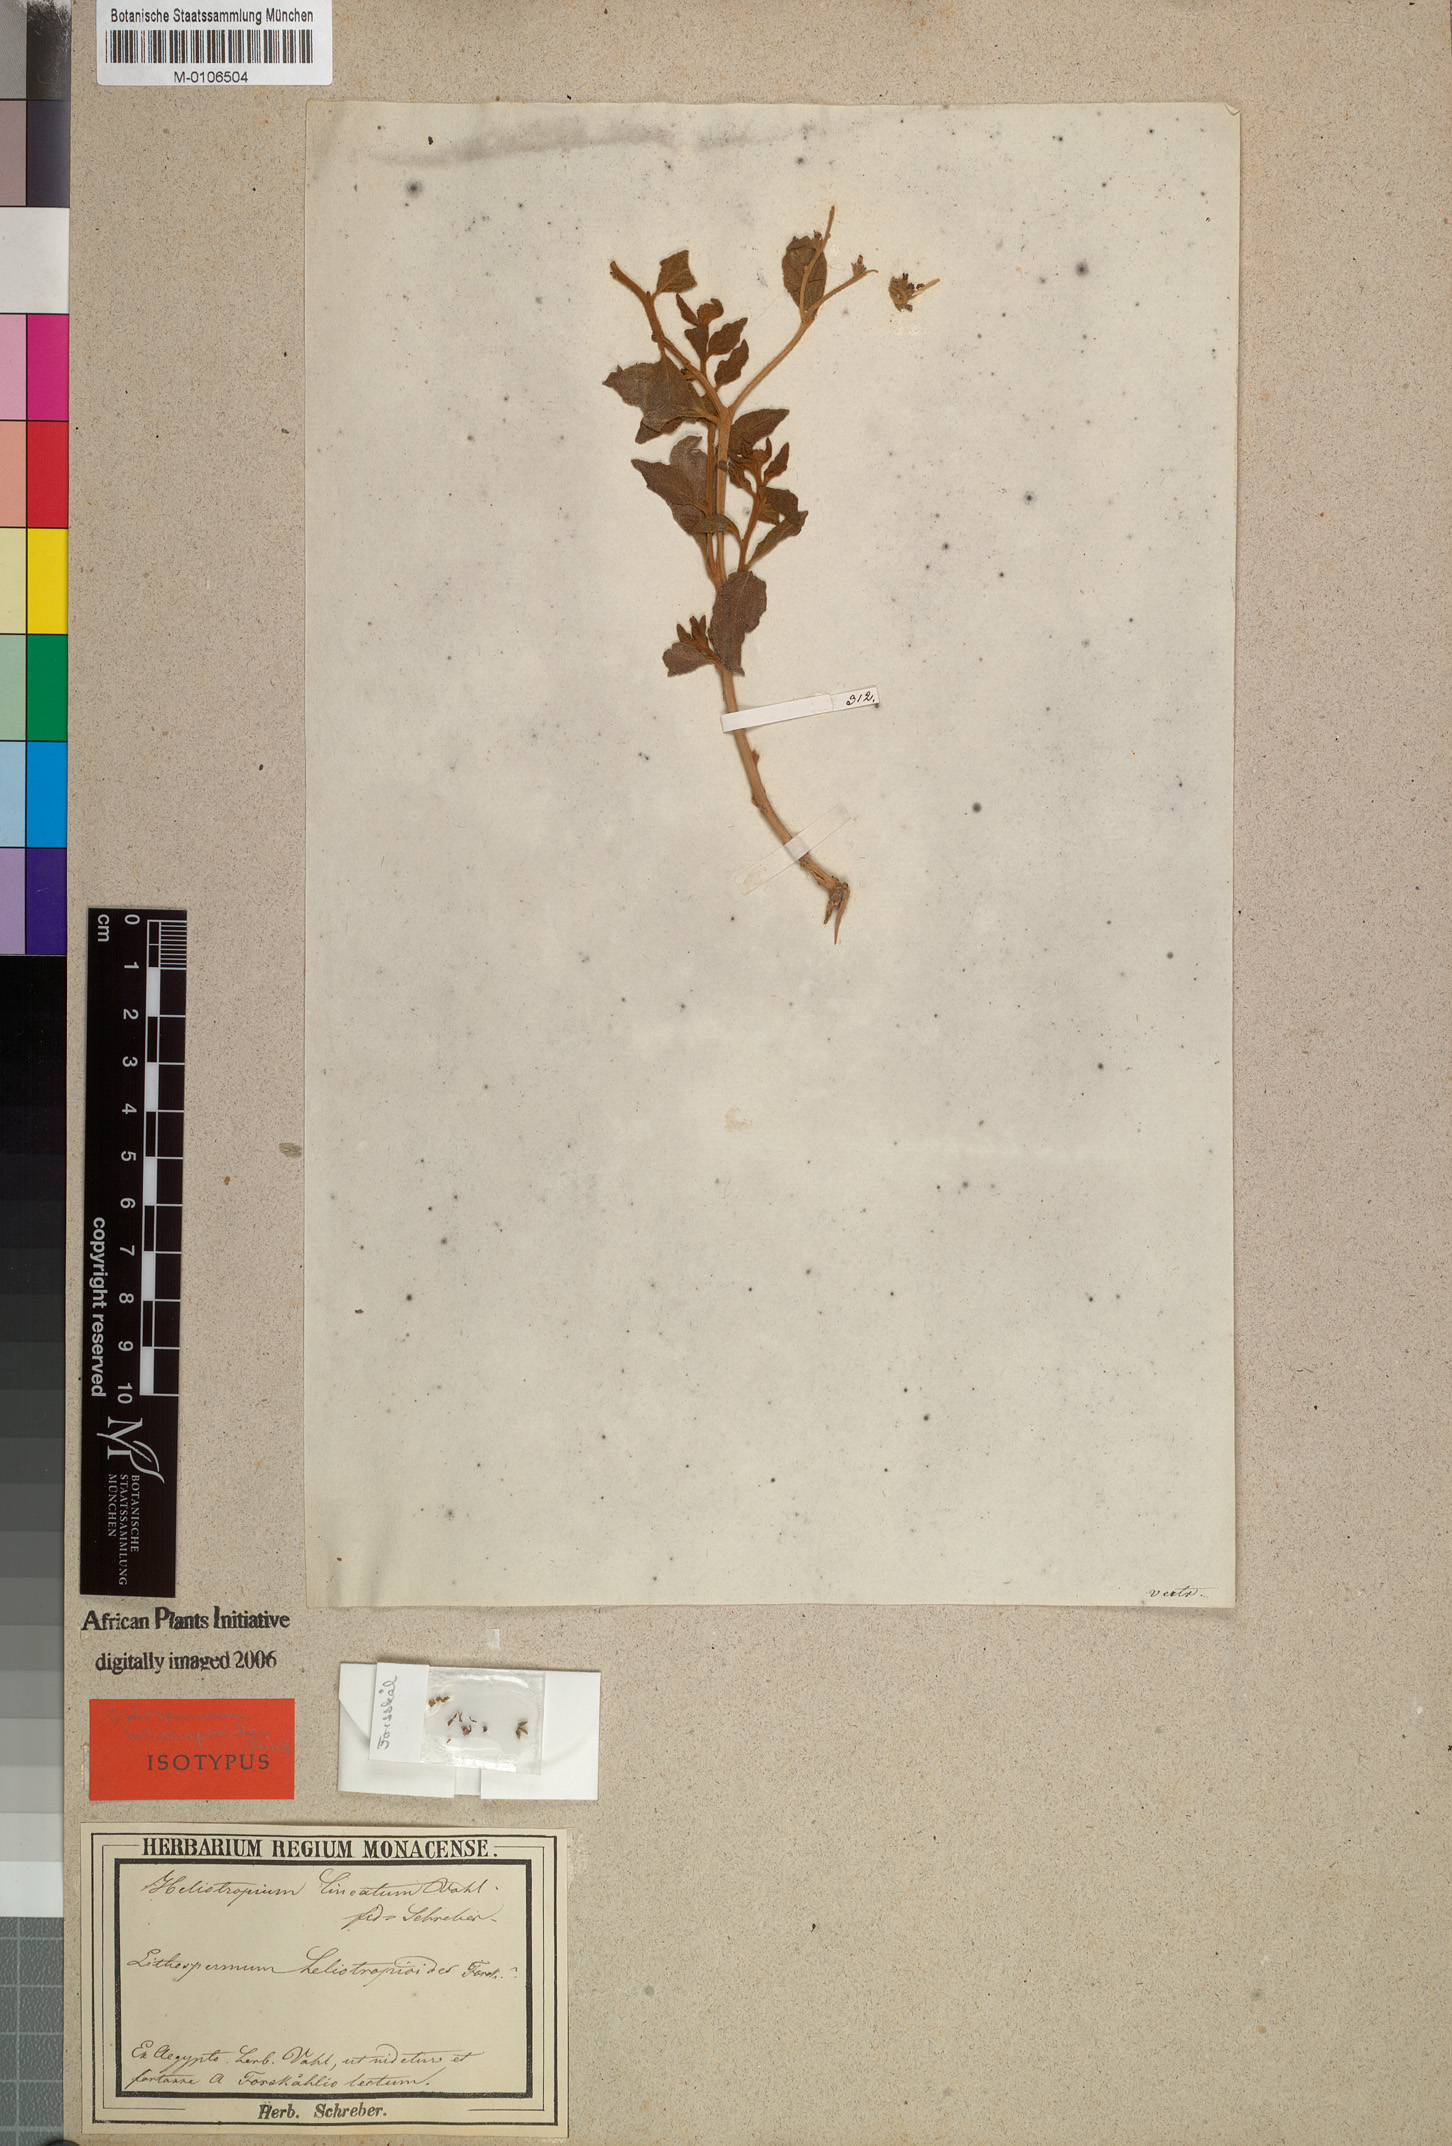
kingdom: Plantae
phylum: Tracheophyta
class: Magnoliopsida
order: Boraginales
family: Heliotropiaceae
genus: Heliotropium
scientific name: Heliotropium digynum
